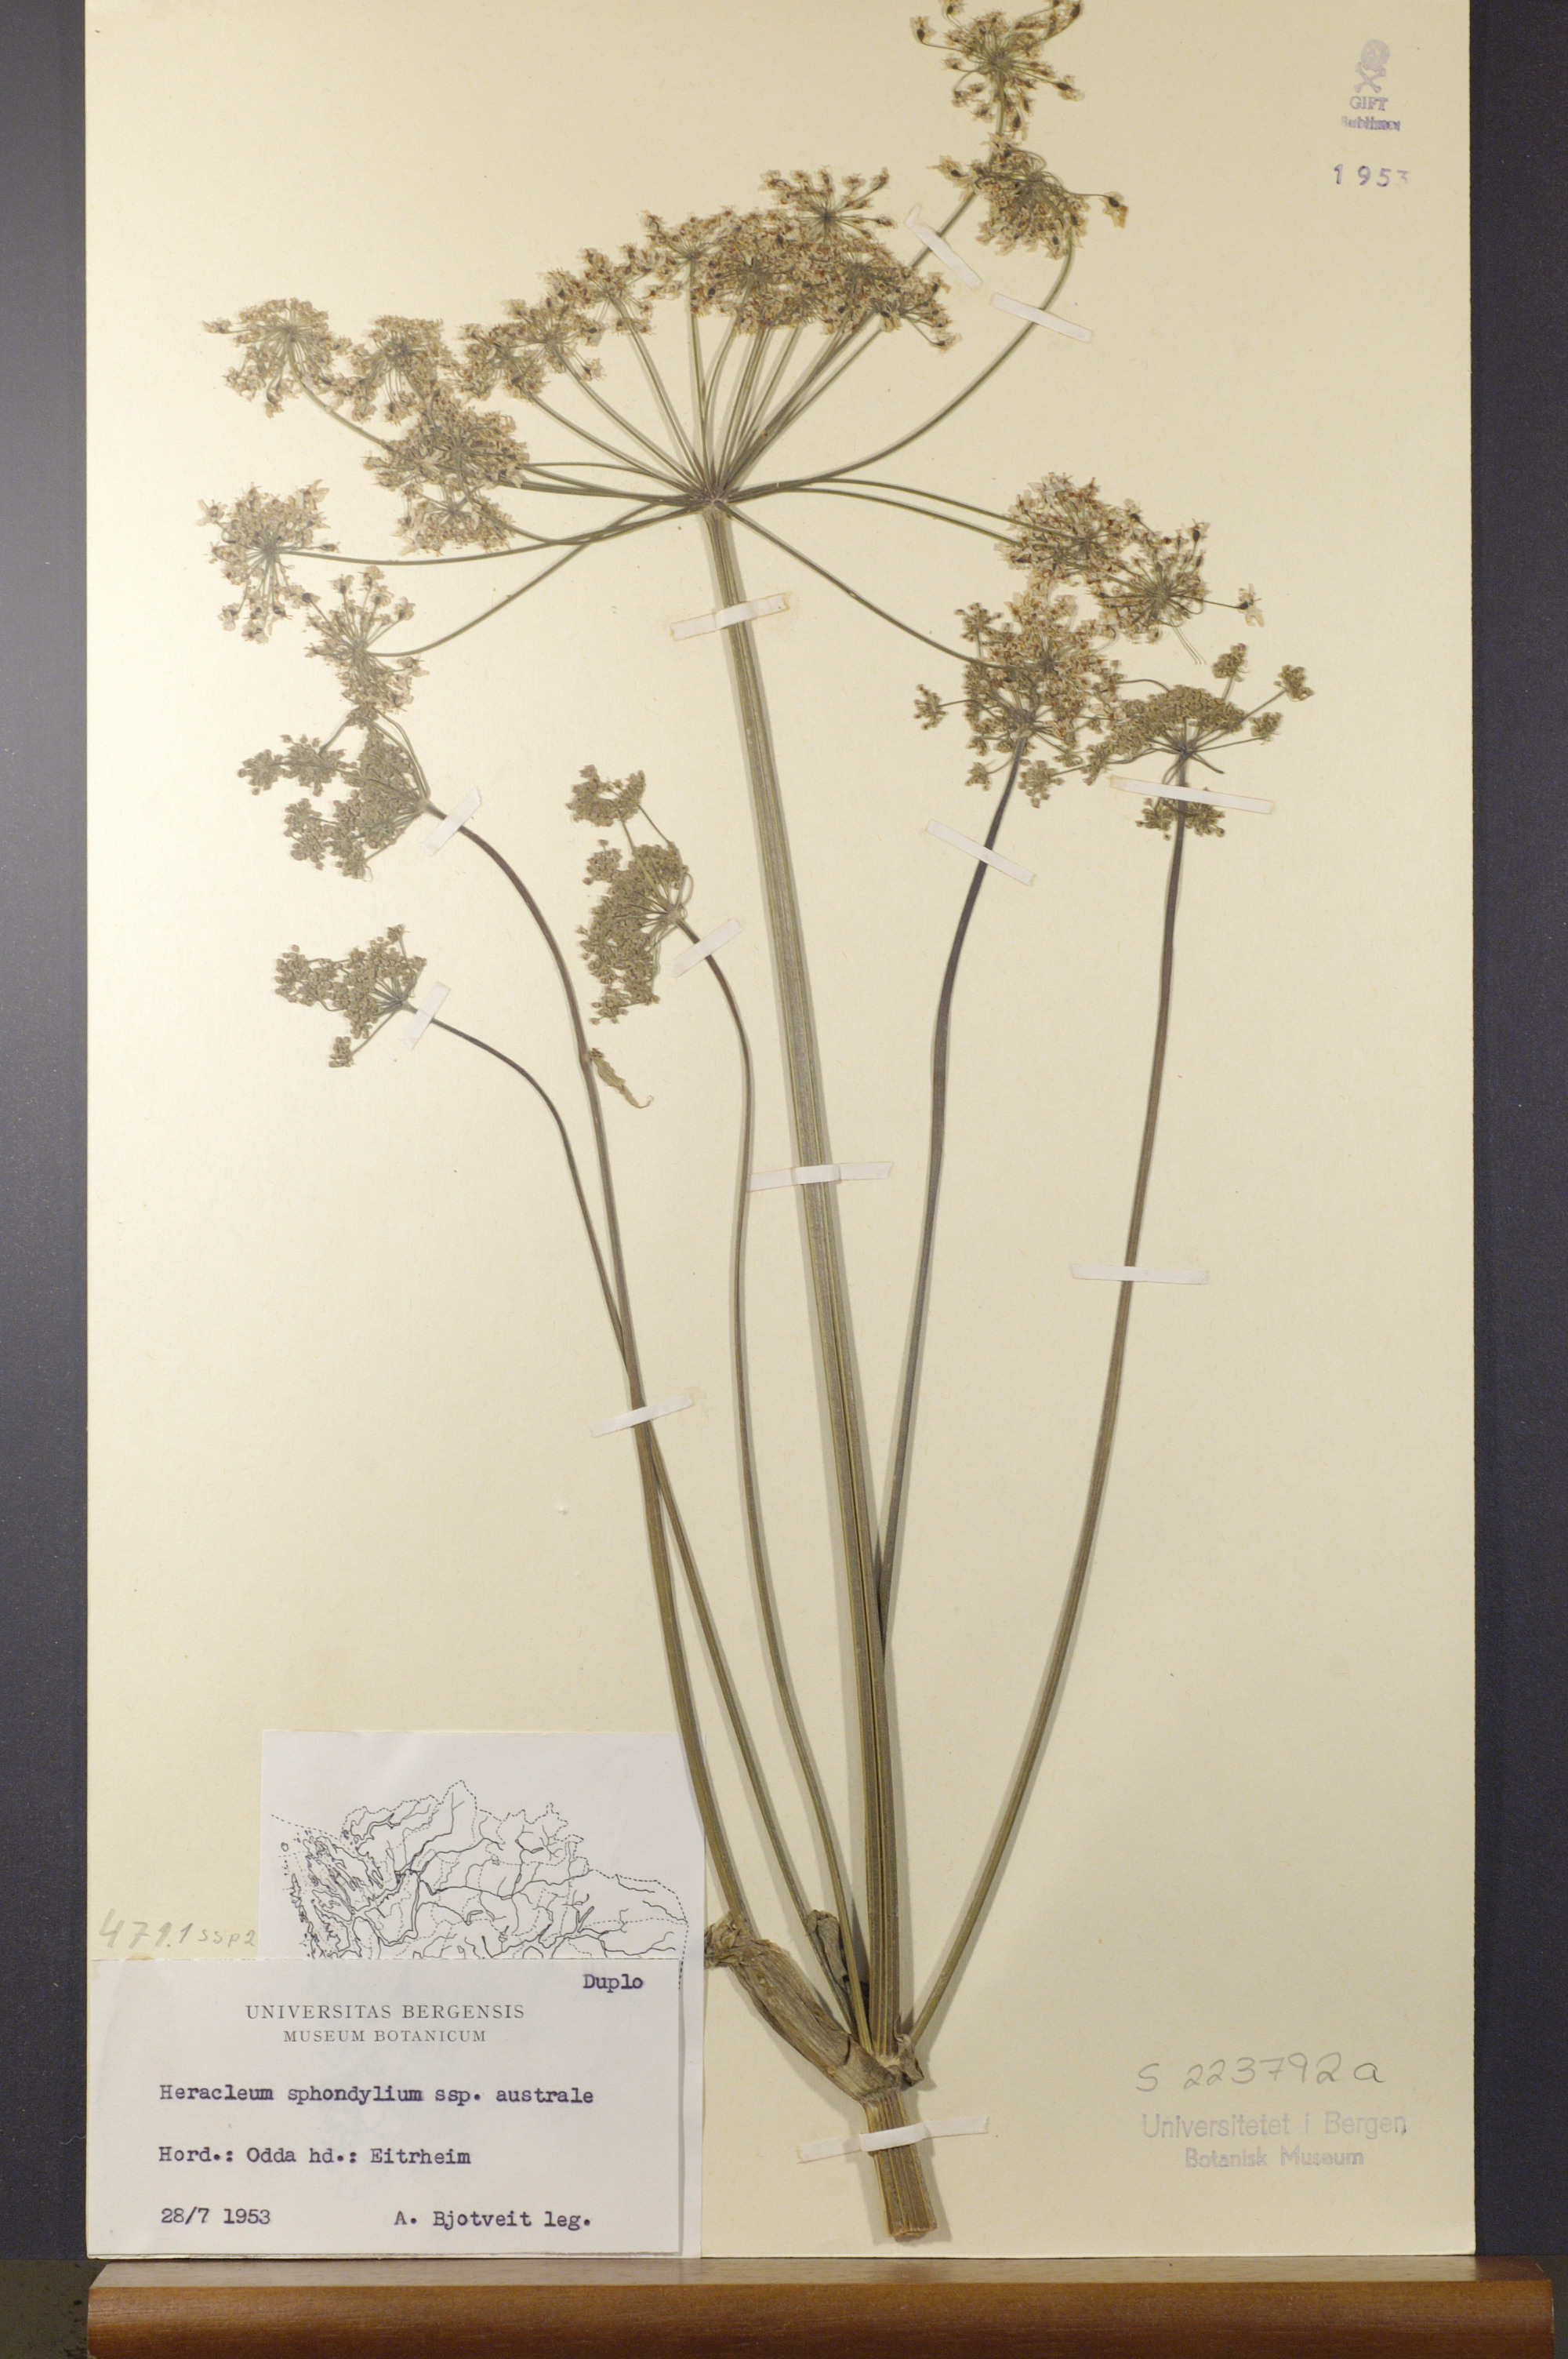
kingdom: Plantae
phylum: Tracheophyta
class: Magnoliopsida
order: Apiales
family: Apiaceae
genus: Heracleum
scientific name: Heracleum sphondylium
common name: Hogweed
